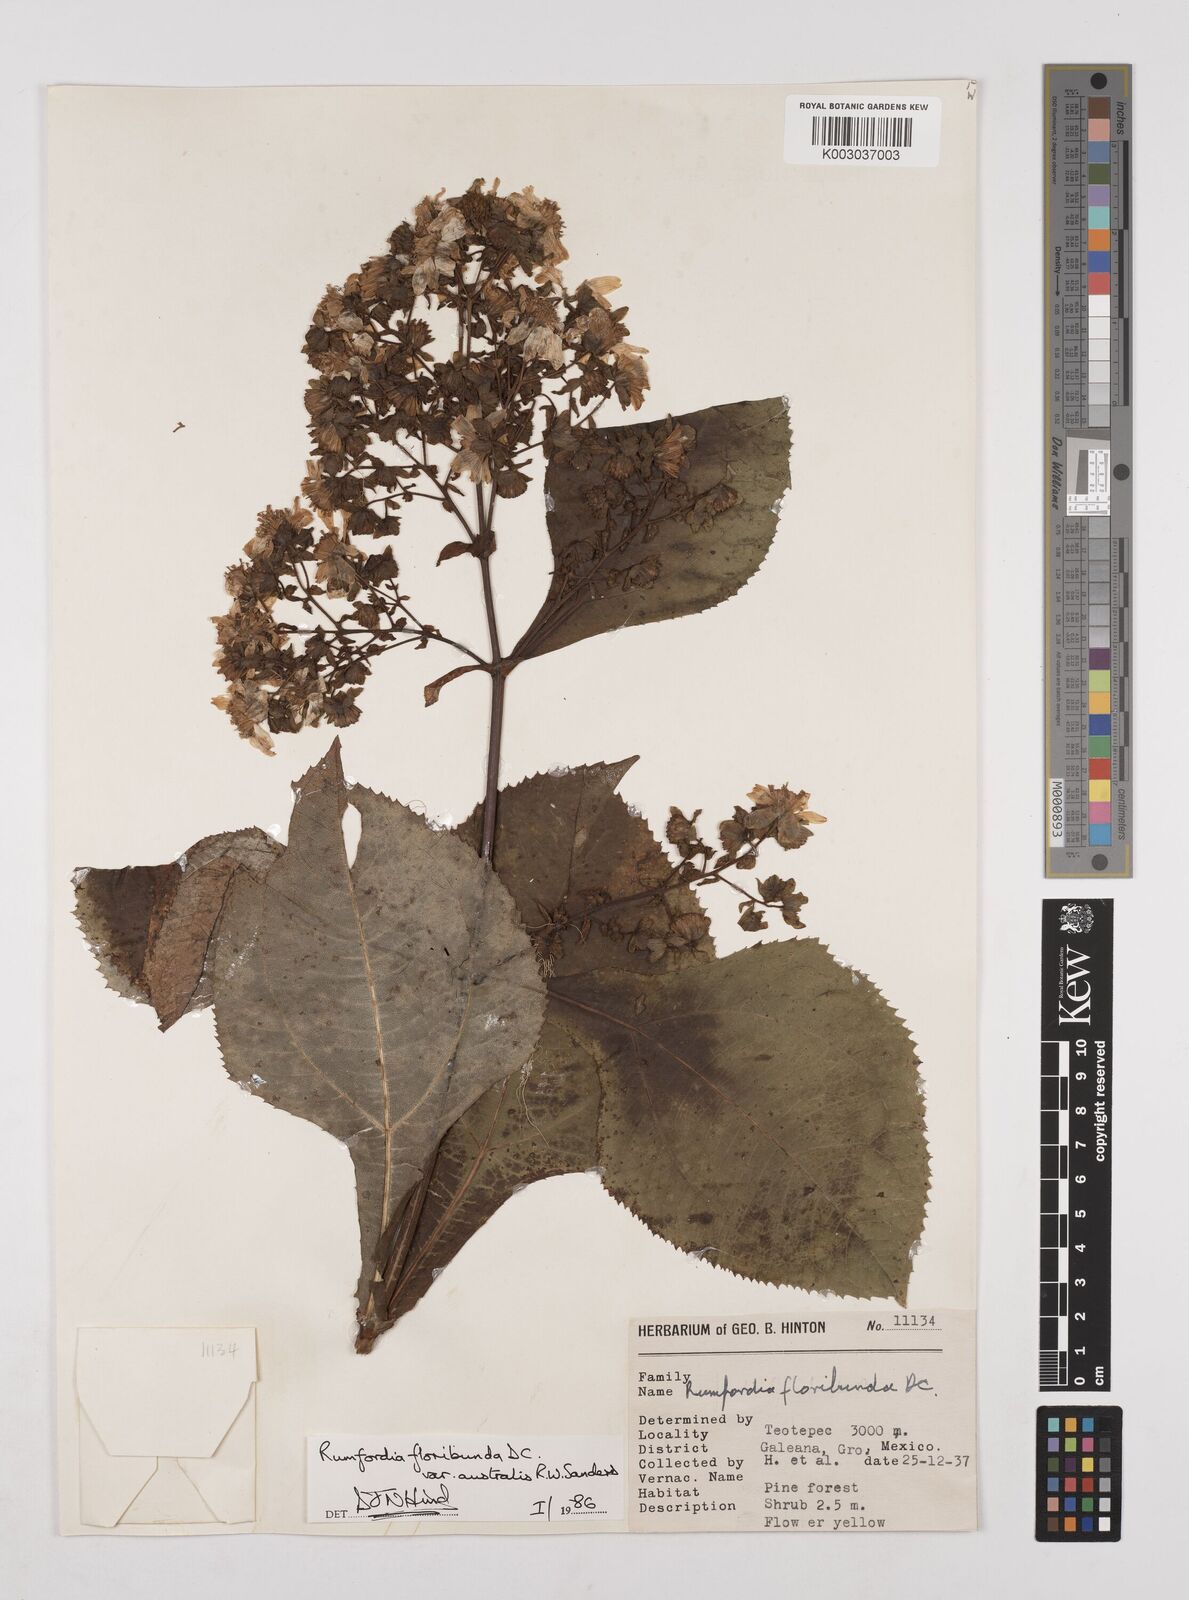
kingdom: Plantae
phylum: Tracheophyta
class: Magnoliopsida
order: Asterales
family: Asteraceae
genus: Rumfordia
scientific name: Rumfordia floribunda
